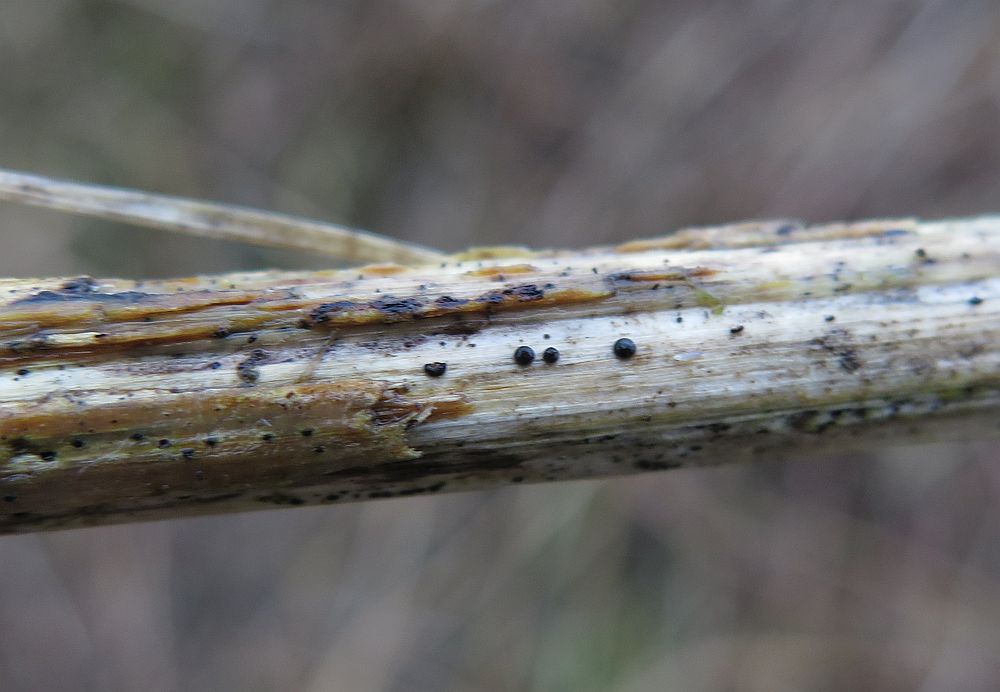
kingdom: Fungi
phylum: Ascomycota
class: Dothideomycetes
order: Pleosporales
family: Leptosphaeriaceae
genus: Leptosphaeria
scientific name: Leptosphaeria doliolum
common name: skærm-kulkegle
